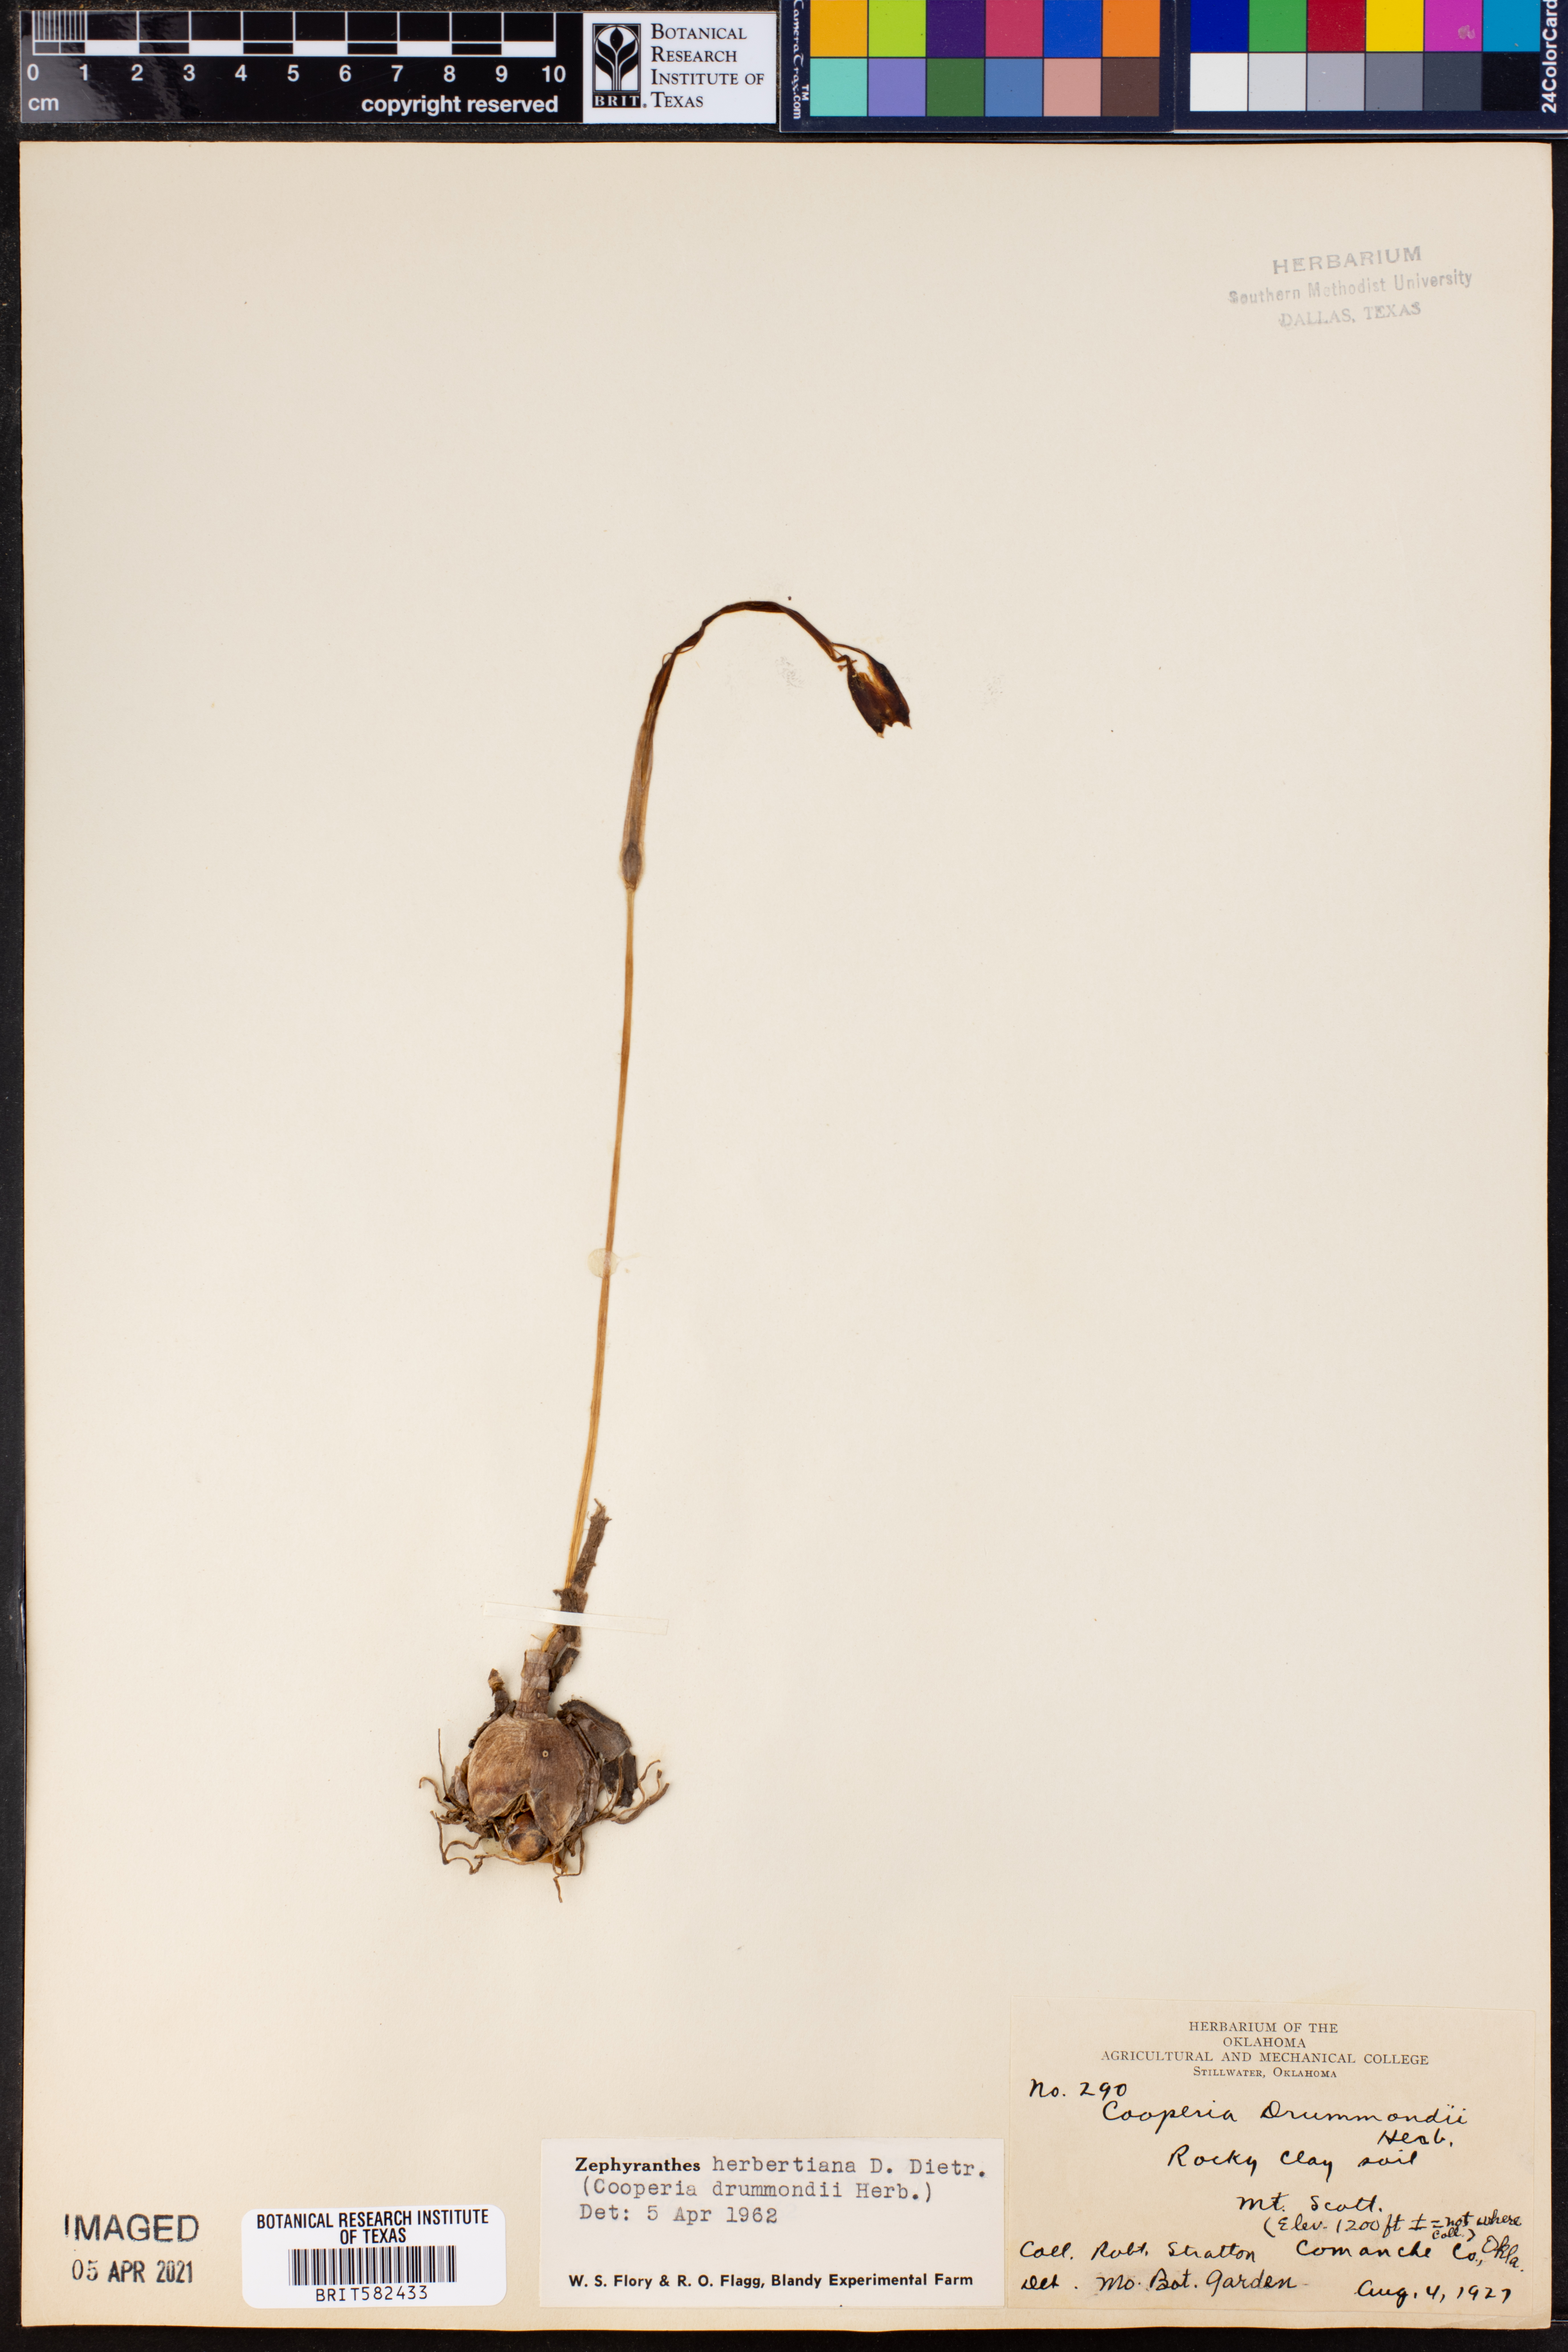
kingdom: Plantae
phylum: Tracheophyta
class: Liliopsida
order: Asparagales
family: Amaryllidaceae
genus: Zephyranthes
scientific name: Zephyranthes chlorosolen
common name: Evening rain-lily
